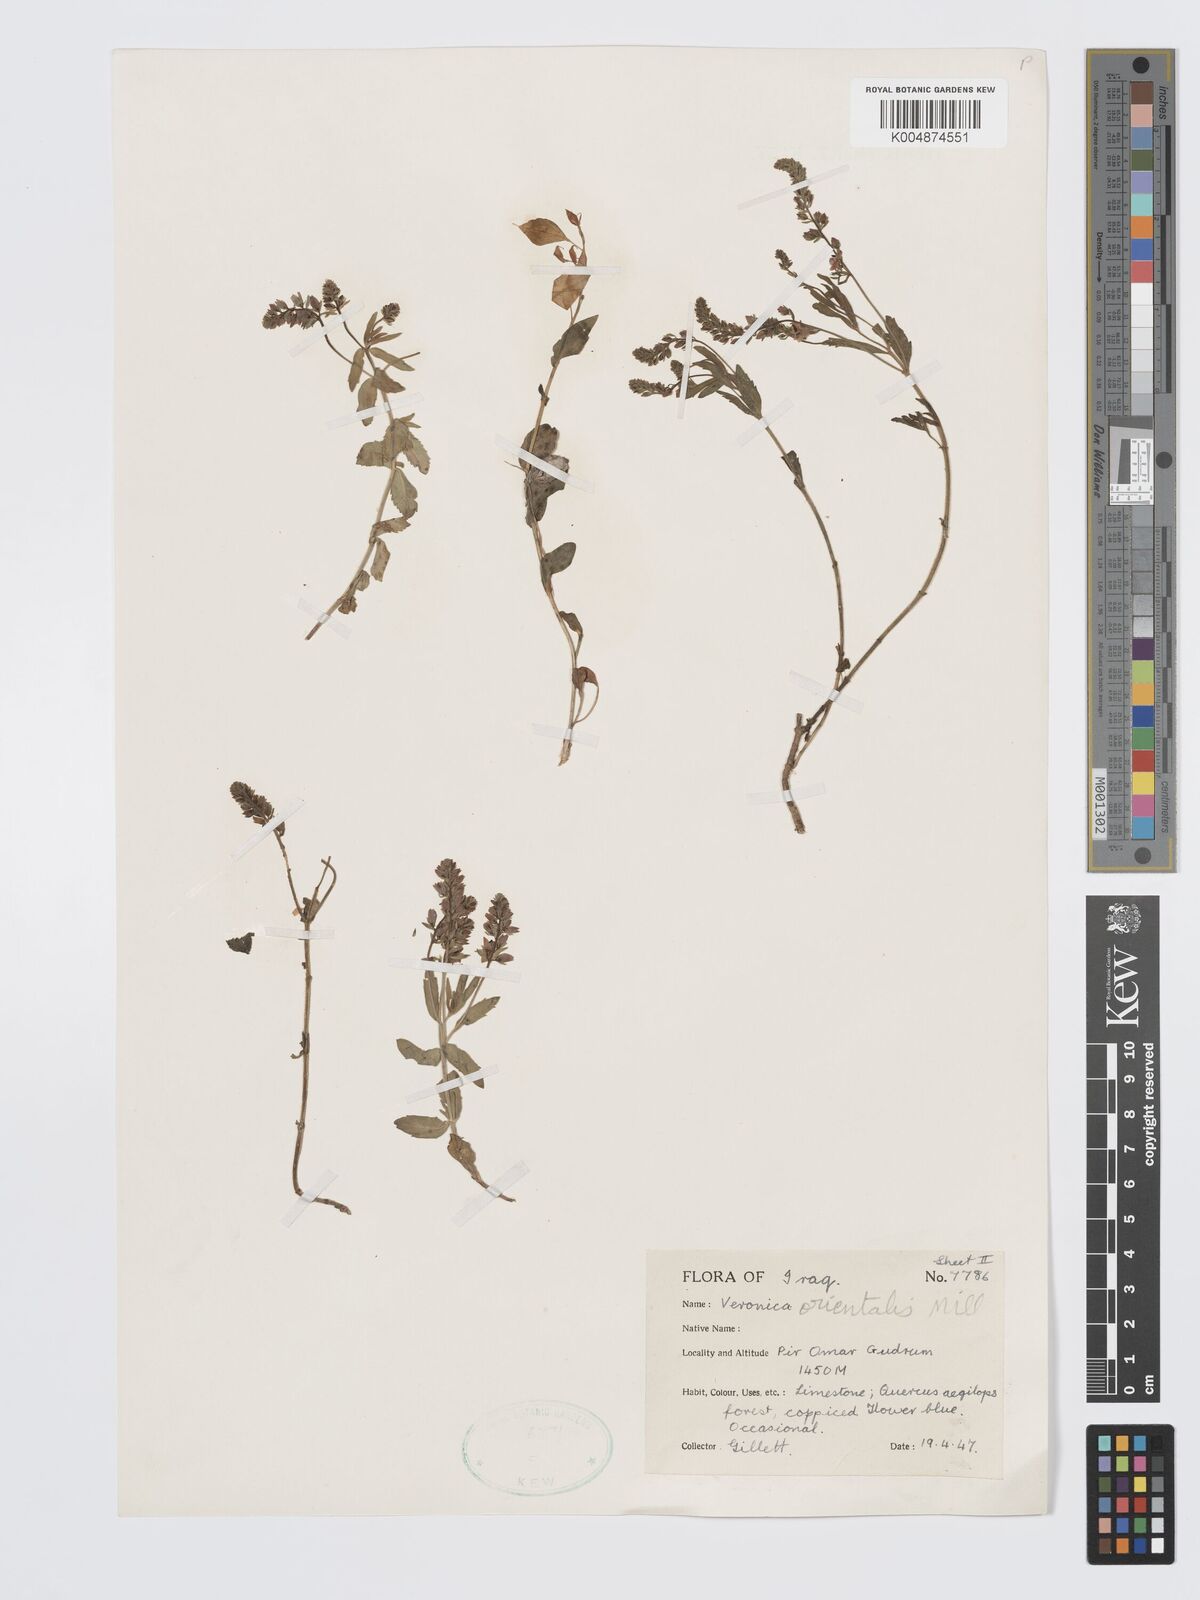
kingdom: Plantae
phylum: Tracheophyta
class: Magnoliopsida
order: Lamiales
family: Plantaginaceae
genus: Veronica
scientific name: Veronica
